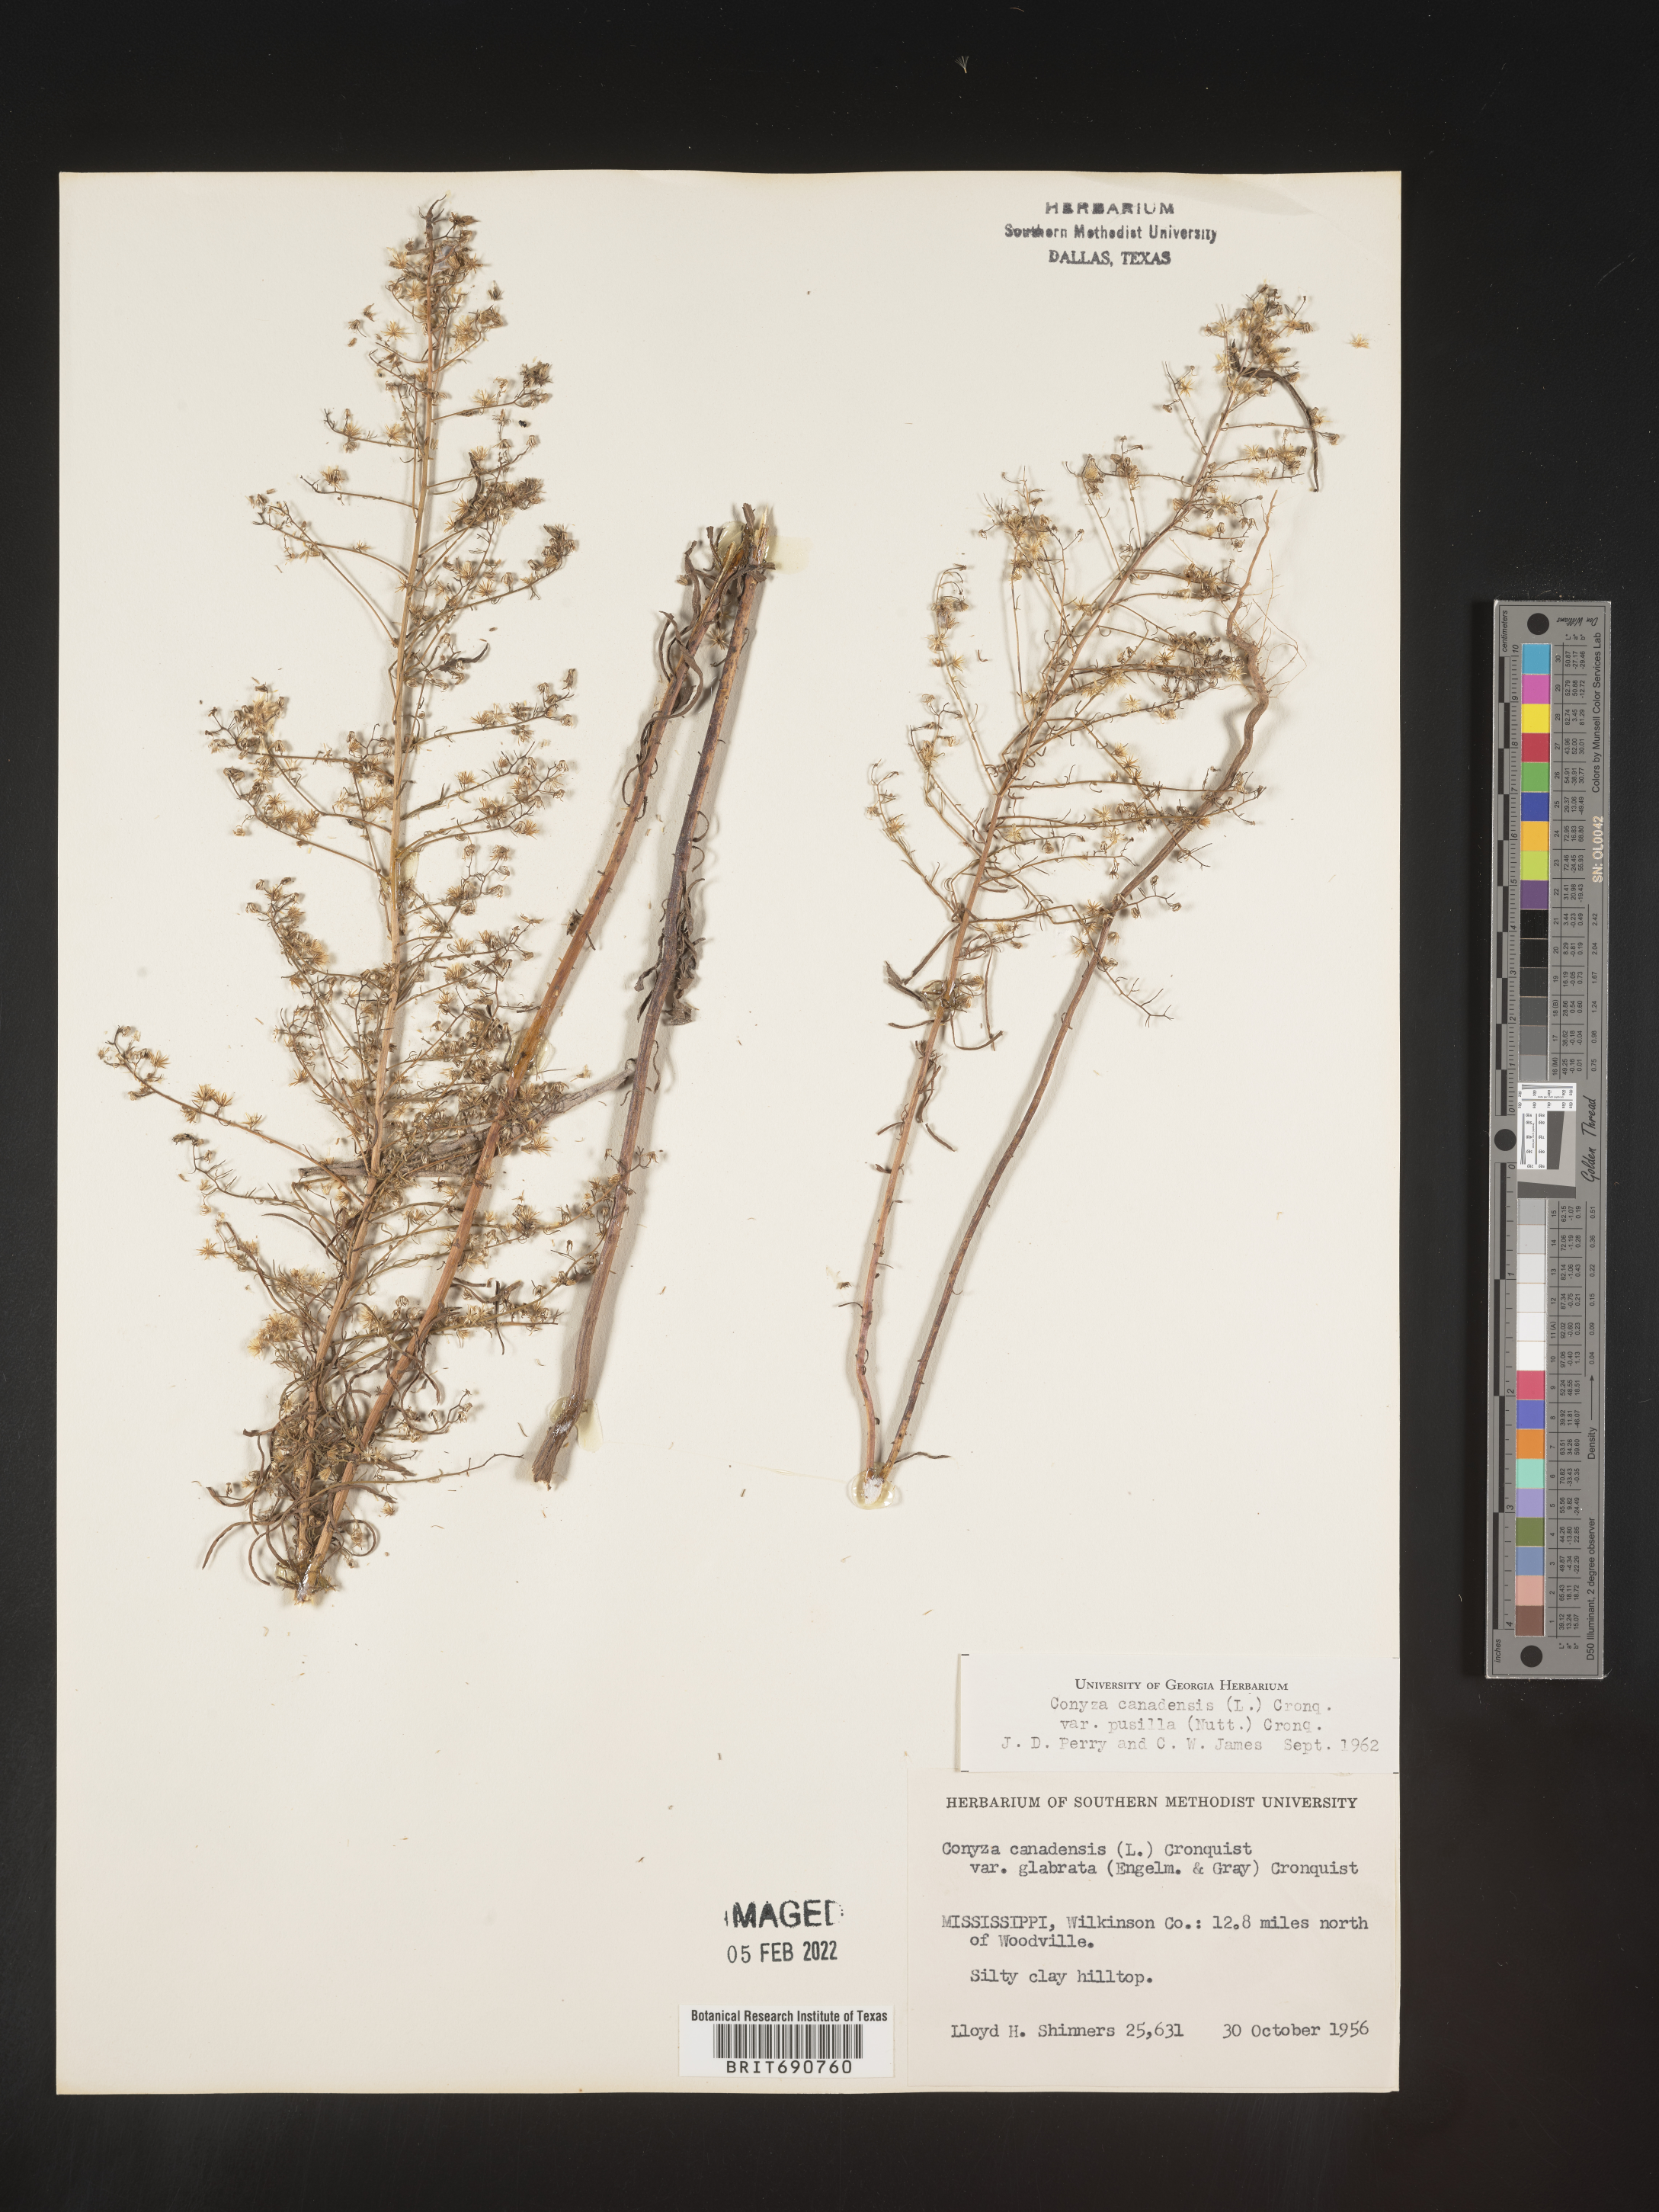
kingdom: Plantae
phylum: Tracheophyta
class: Magnoliopsida
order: Asterales
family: Asteraceae
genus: Erigeron
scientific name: Erigeron canadensis
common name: Canadian fleabane
